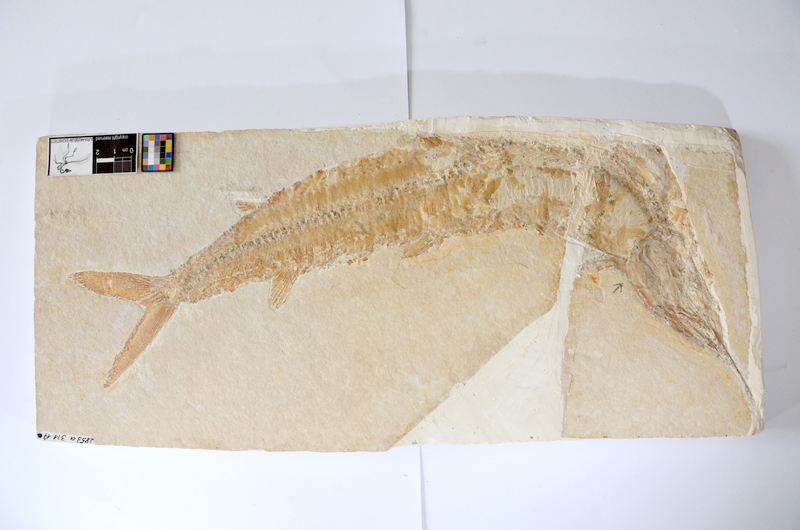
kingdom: Animalia
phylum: Chordata
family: Aspidorhynchidae
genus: Aspidorhynchus
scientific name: Aspidorhynchus acutirostris
